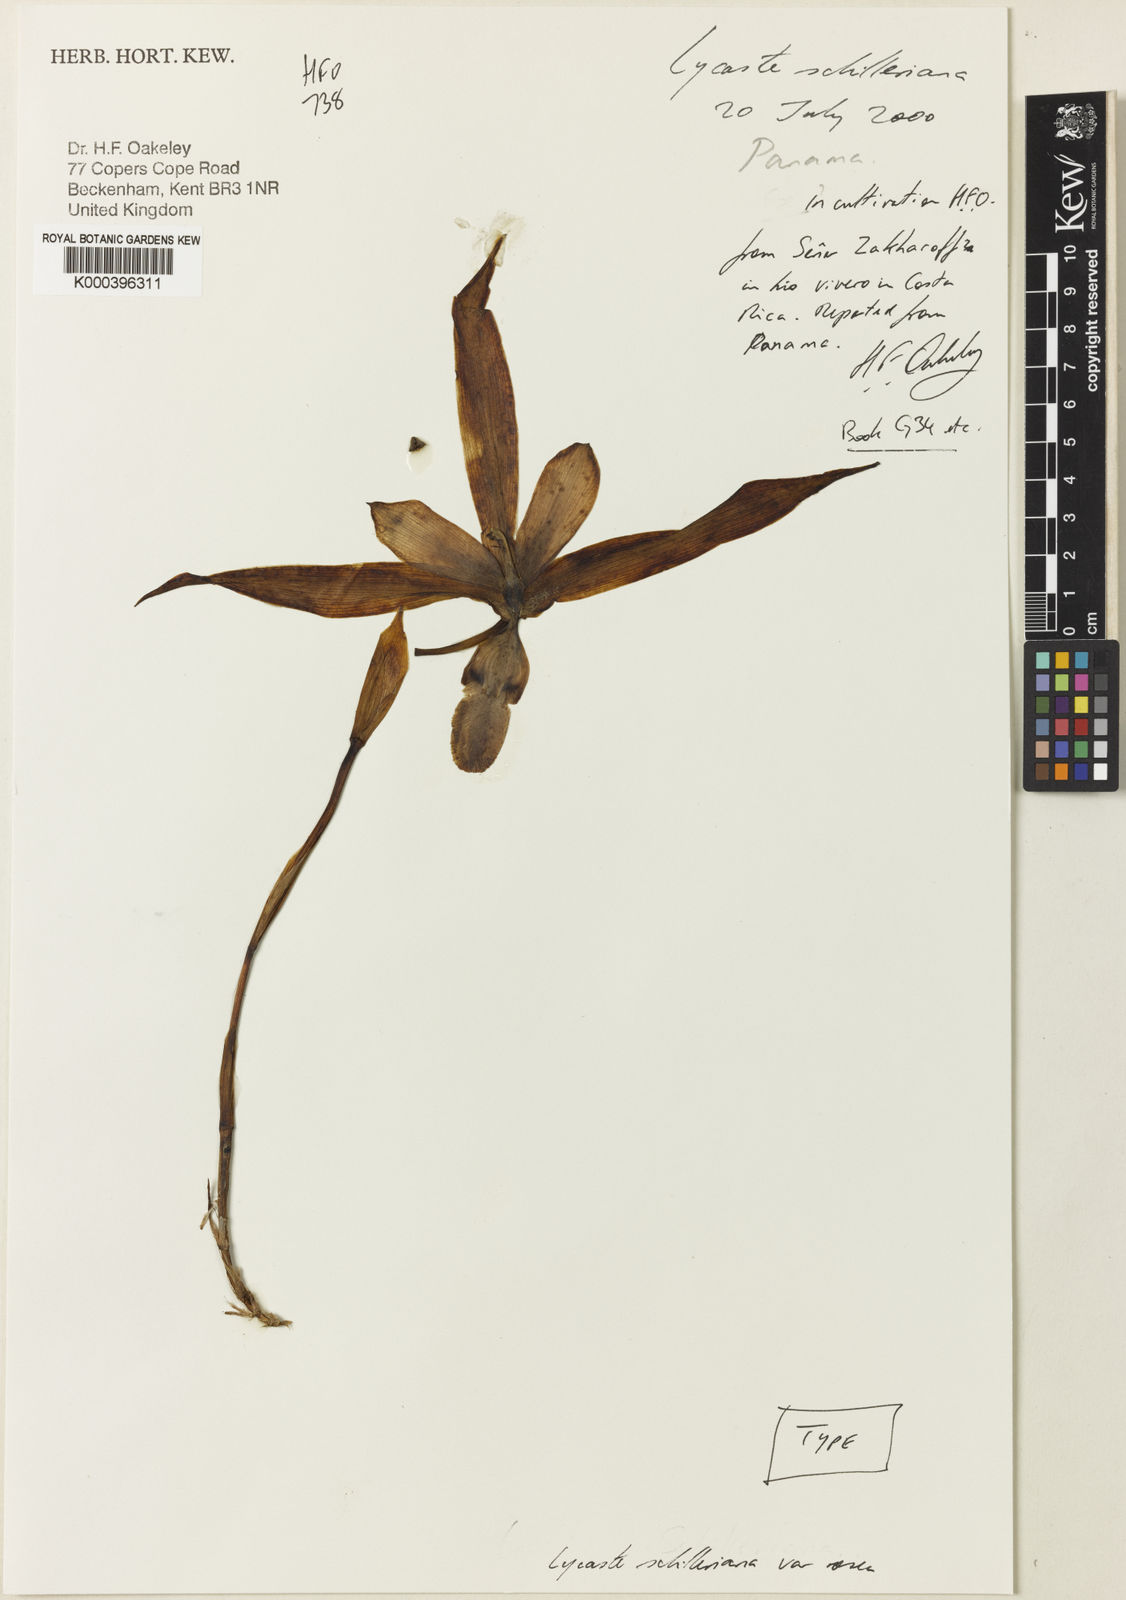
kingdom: Plantae
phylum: Tracheophyta
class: Liliopsida
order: Asparagales
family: Orchidaceae
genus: Lycaste
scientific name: Lycaste schilleriana
